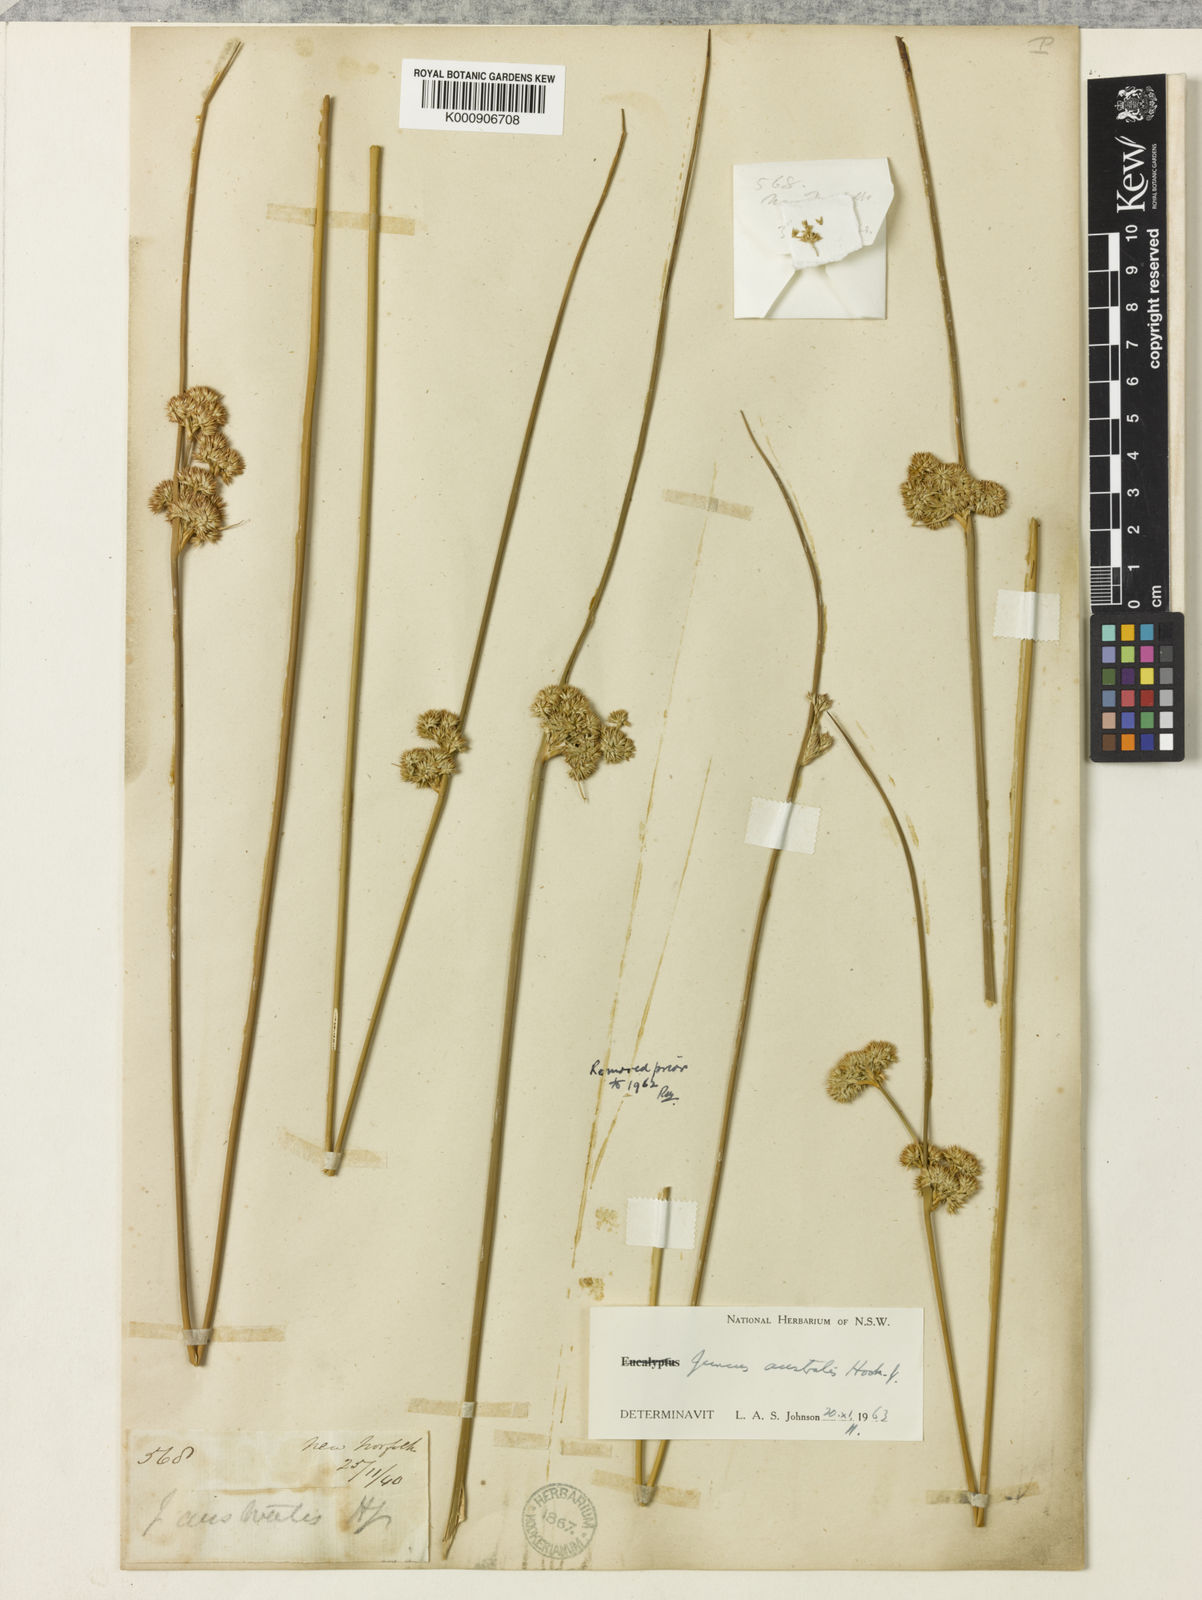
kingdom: Plantae
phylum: Tracheophyta
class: Liliopsida
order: Poales
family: Juncaceae
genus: Juncus
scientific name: Juncus australis
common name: Austral rush
